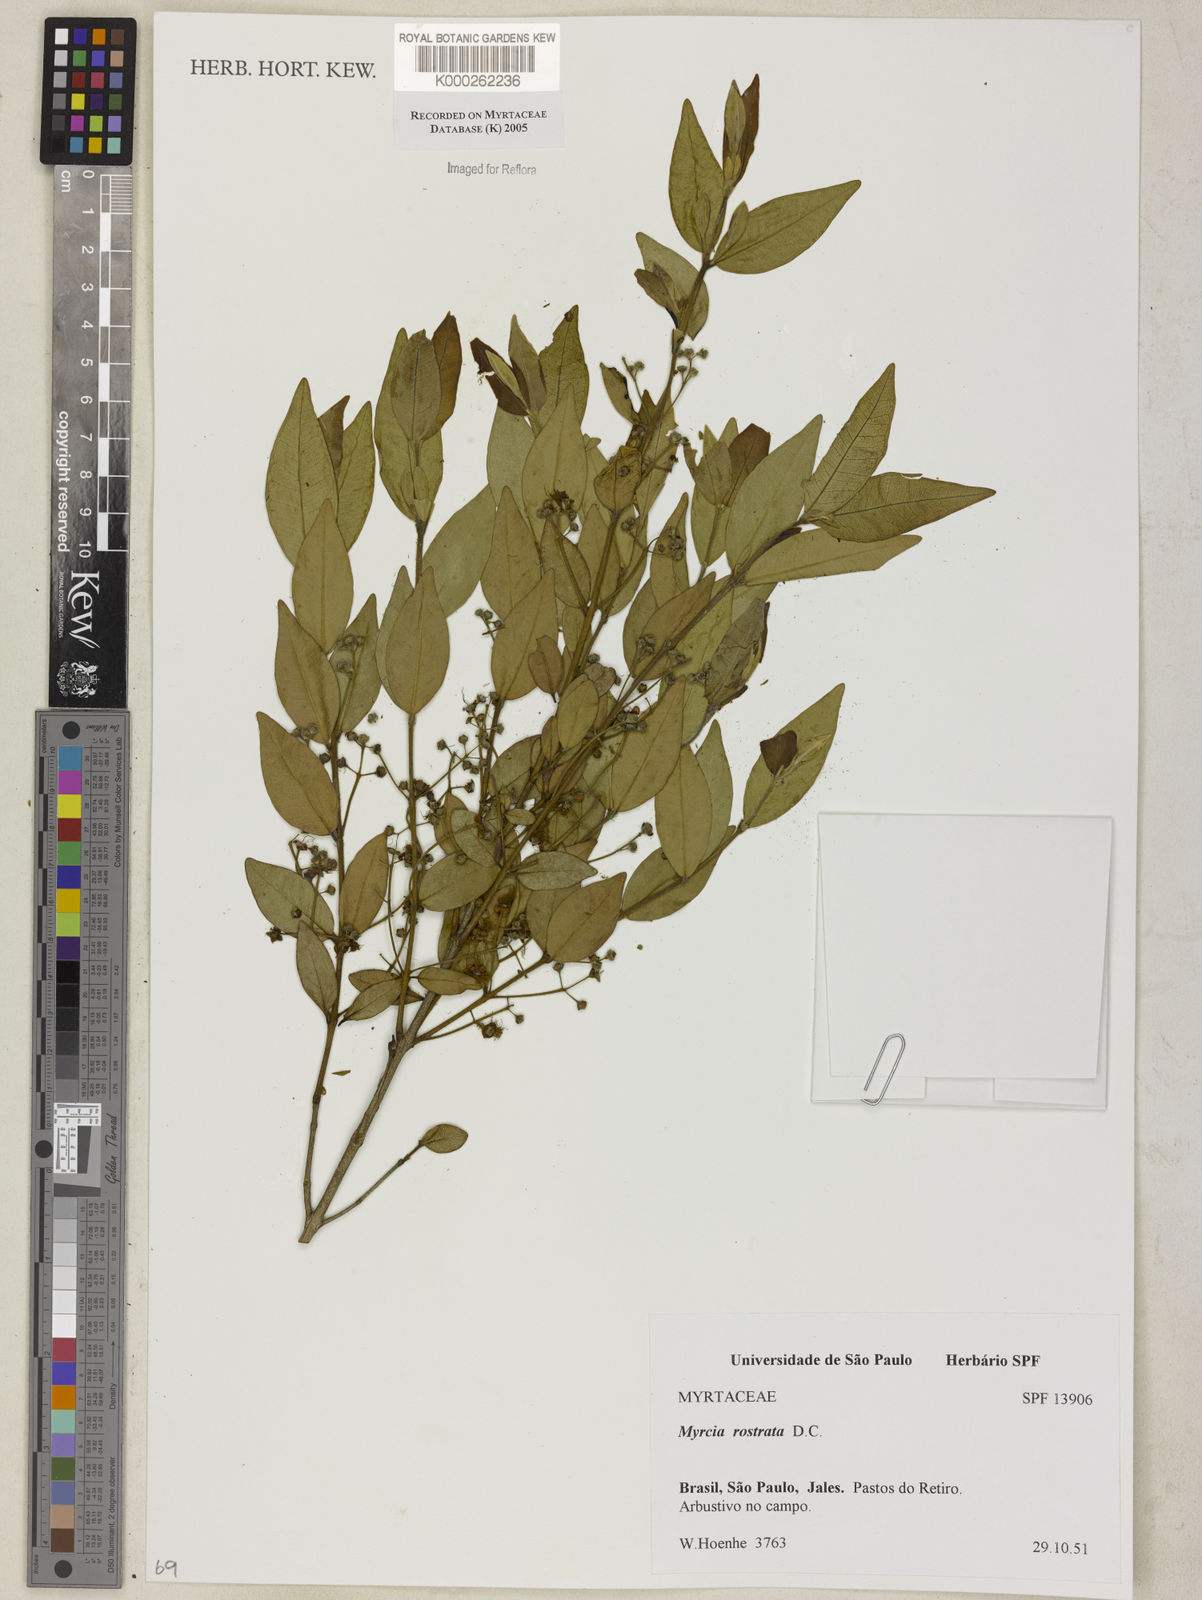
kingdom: Plantae
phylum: Tracheophyta
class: Magnoliopsida
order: Myrtales
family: Myrtaceae
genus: Myrcia
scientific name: Myrcia splendens
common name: Surinam cherry
